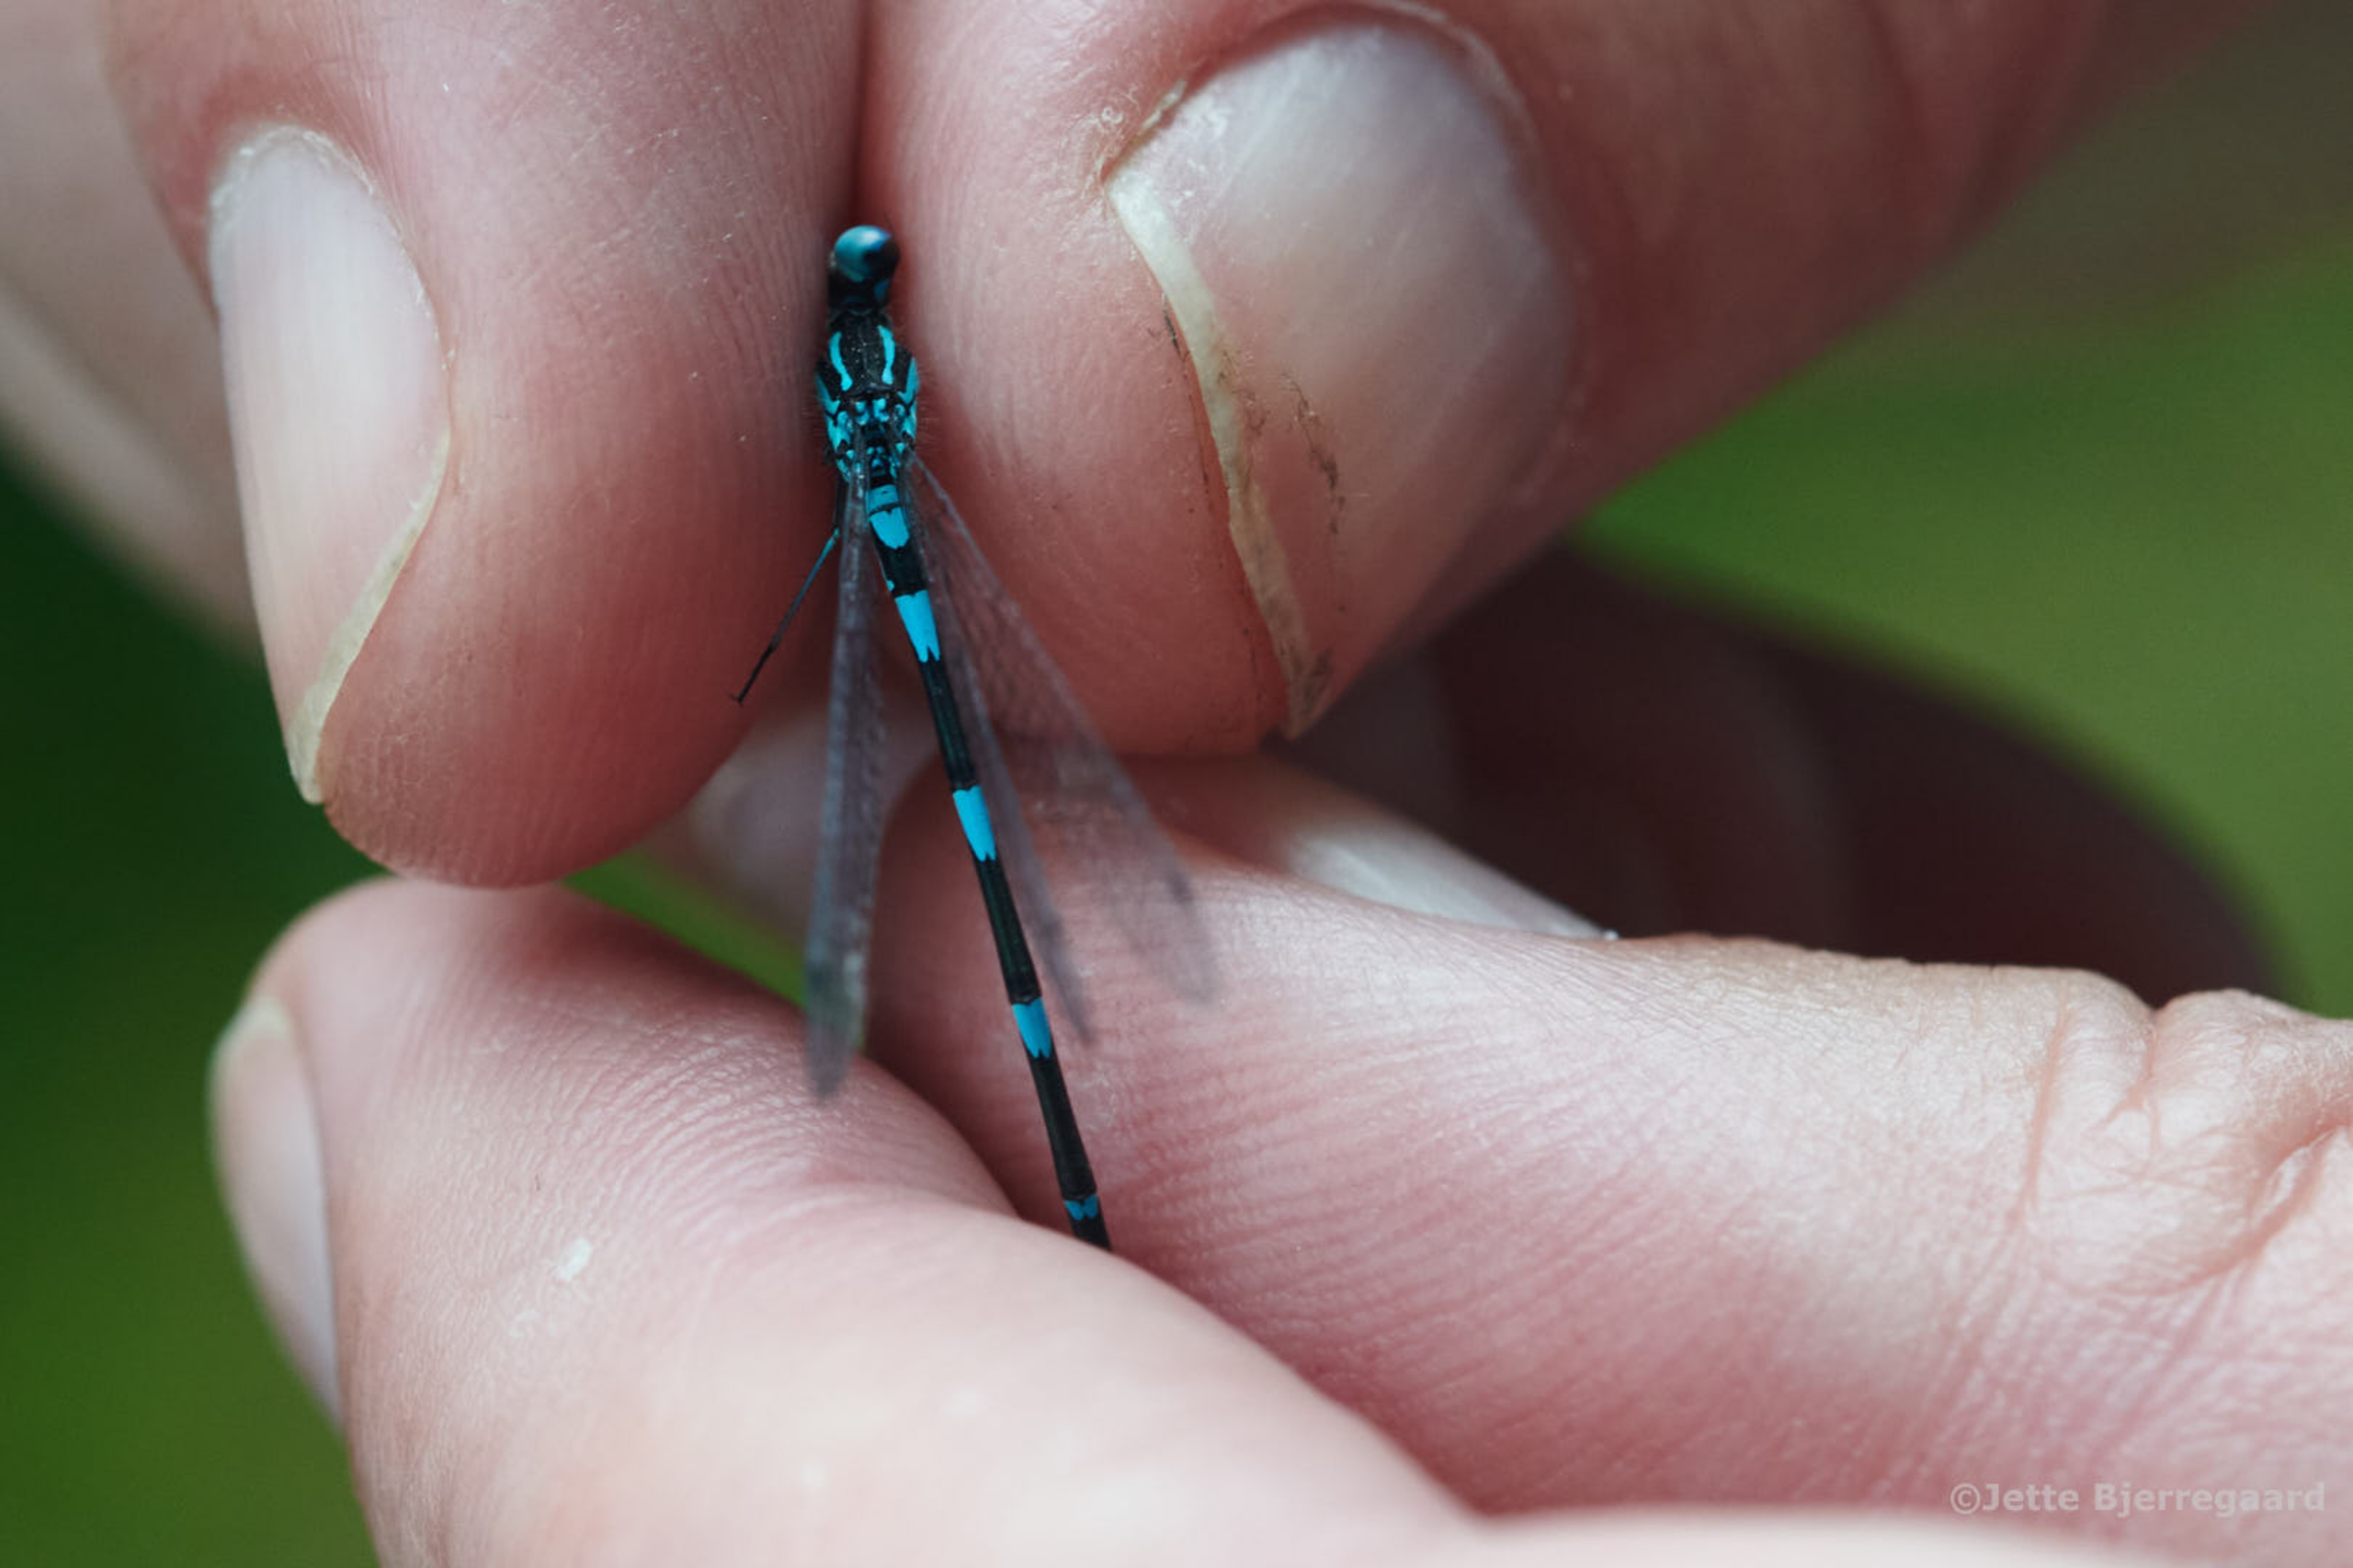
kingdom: Animalia
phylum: Arthropoda
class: Insecta
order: Odonata
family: Coenagrionidae
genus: Coenagrion
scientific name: Coenagrion pulchellum
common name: Flagermus-vandnymfe
